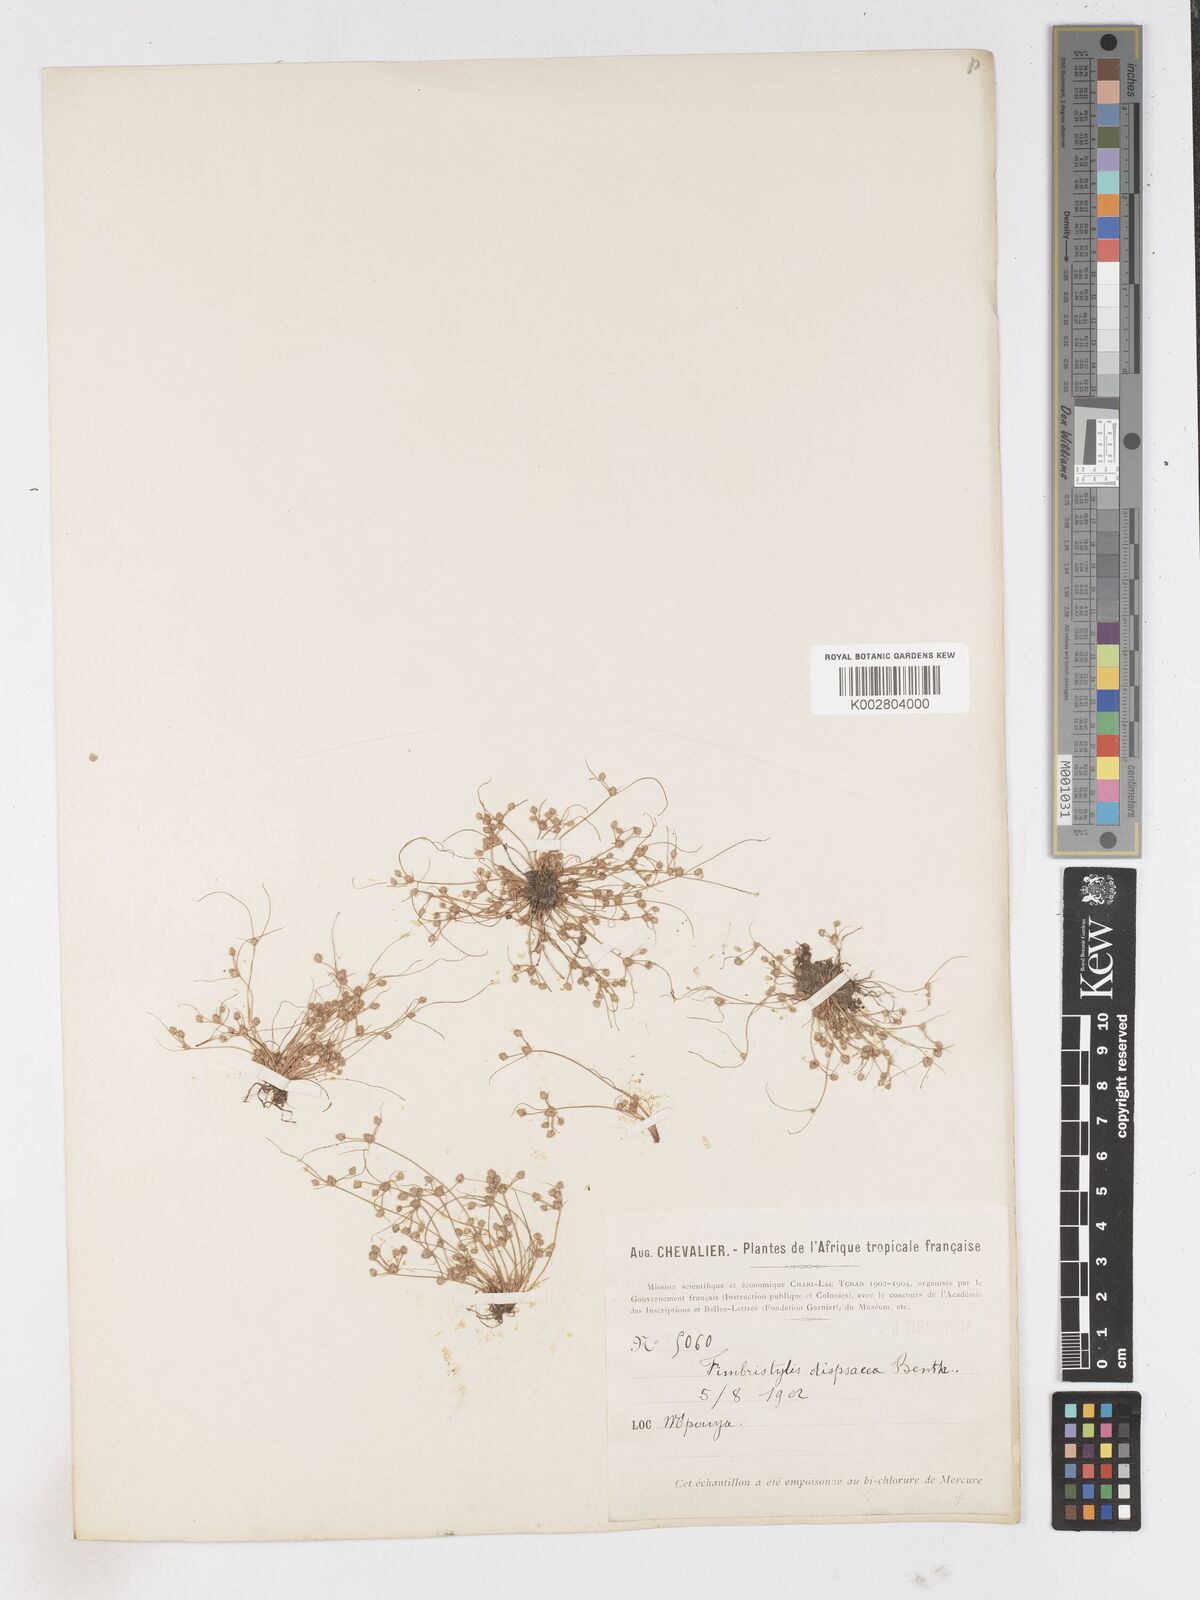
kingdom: Plantae
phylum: Tracheophyta
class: Liliopsida
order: Poales
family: Cyperaceae
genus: Fimbristylis
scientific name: Fimbristylis dipsacea
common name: Harper's fimbristylis
